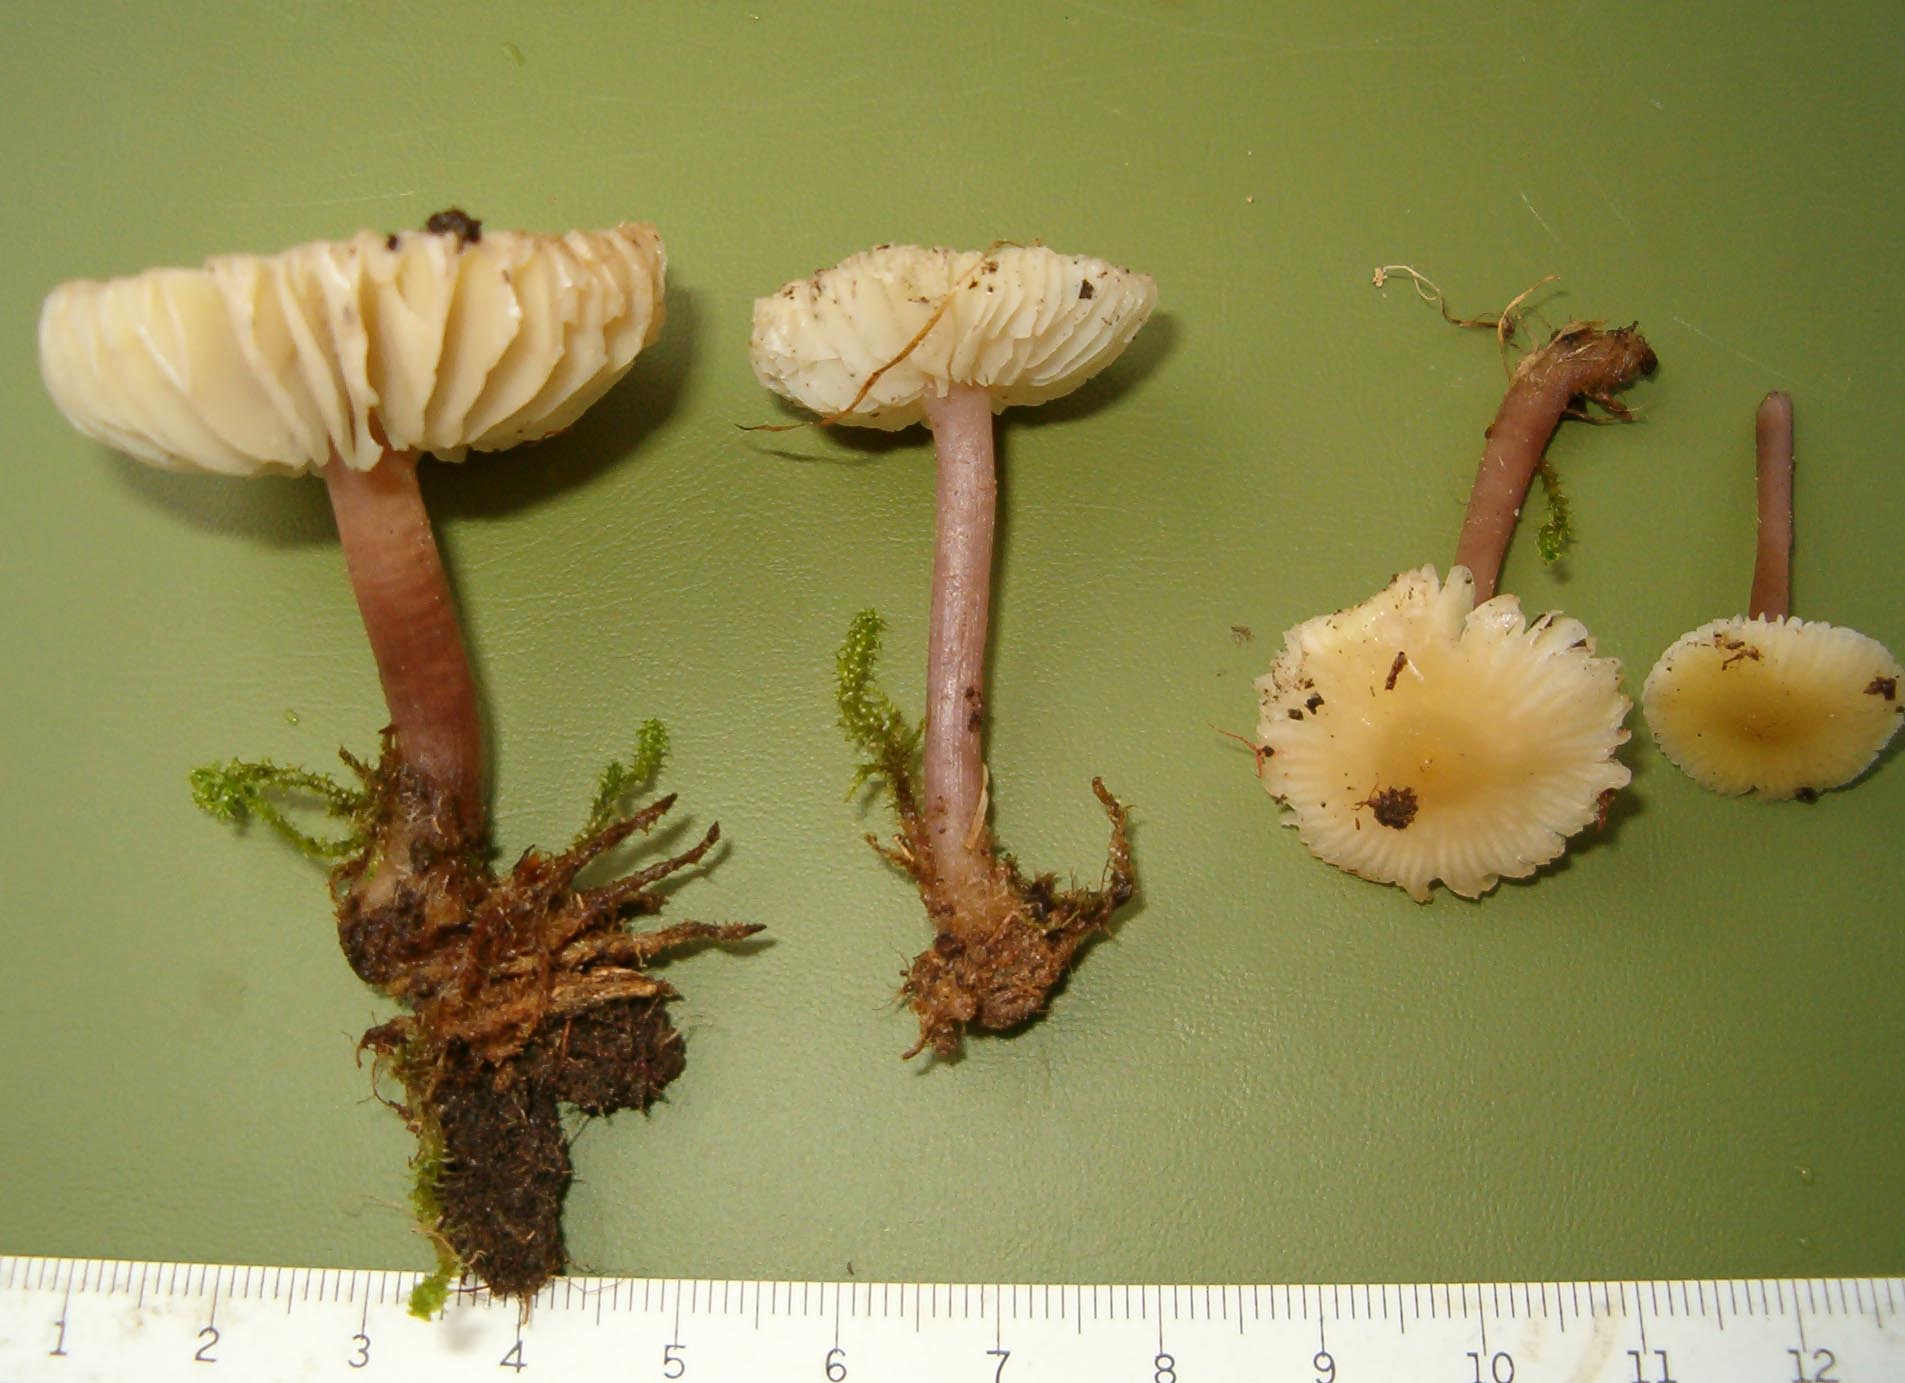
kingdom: Fungi
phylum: Basidiomycota
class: Agaricomycetes
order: Agaricales
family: Mycenaceae
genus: Mycena
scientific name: Mycena luteovariegata
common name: lillagul huesvamp
